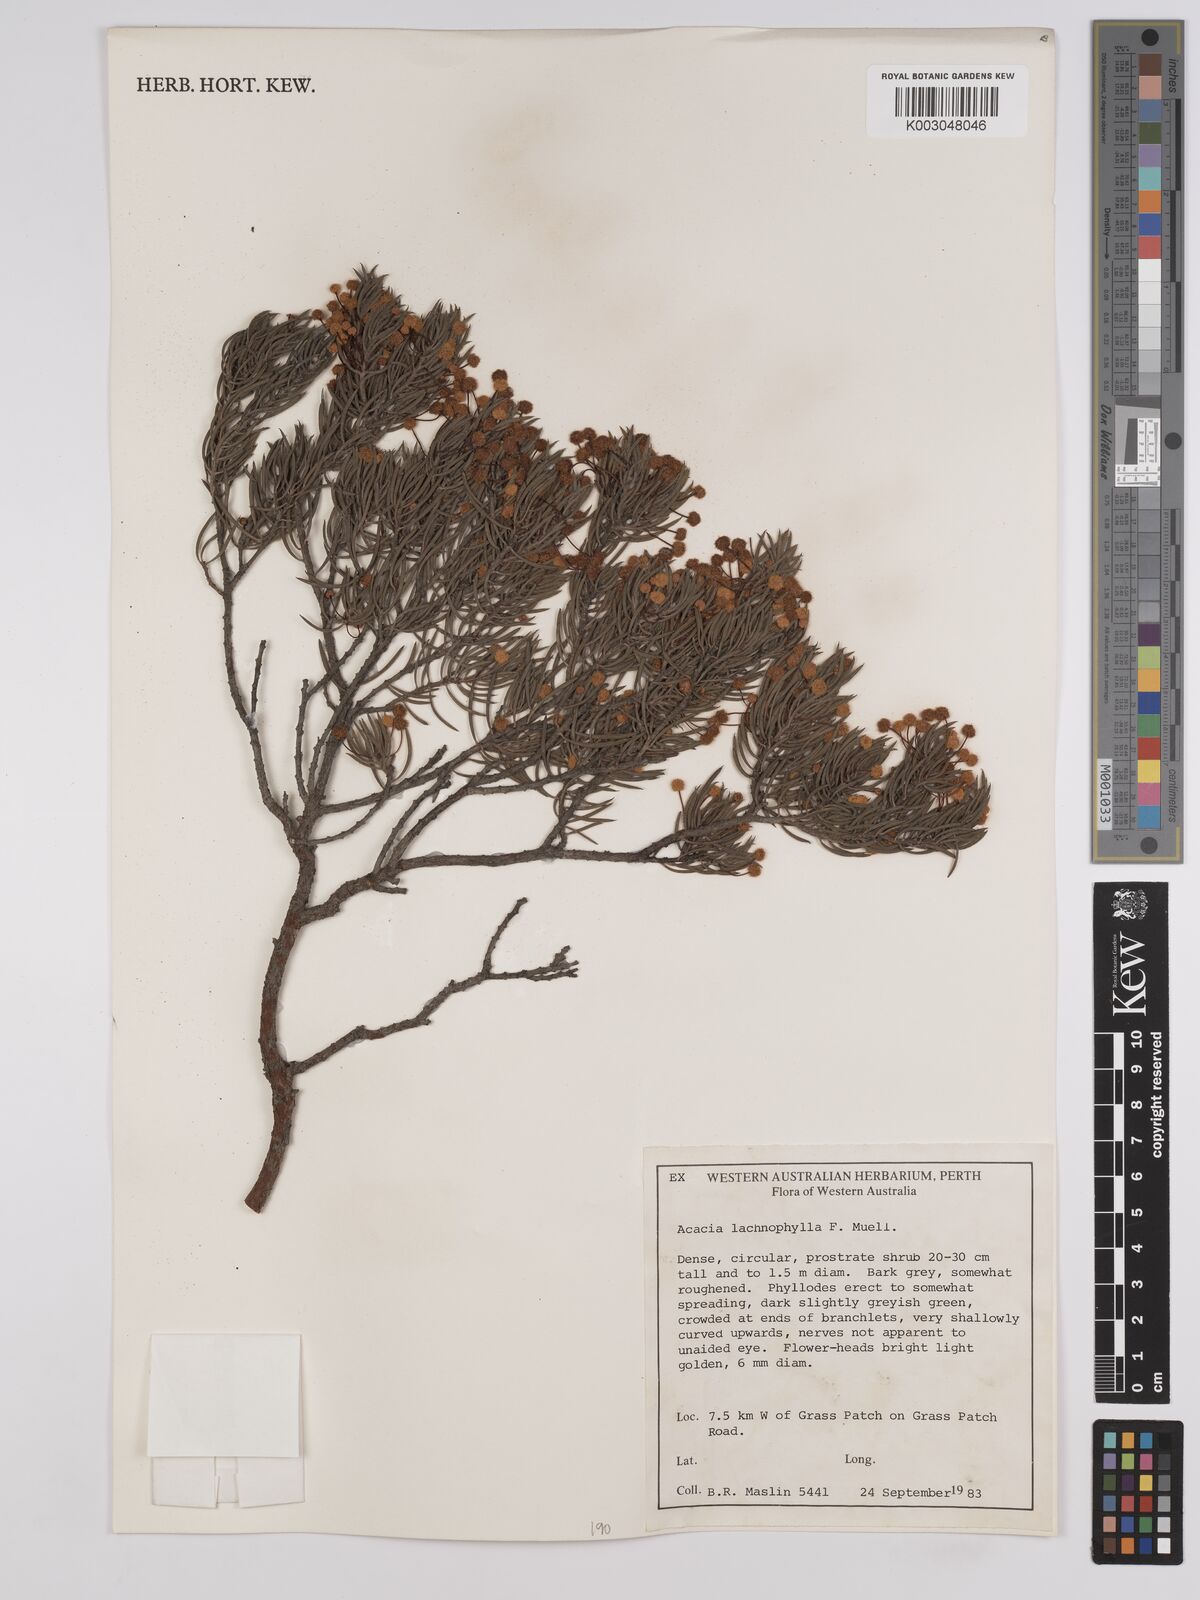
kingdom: Plantae
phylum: Tracheophyta
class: Magnoliopsida
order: Fabales
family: Fabaceae
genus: Acacia
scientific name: Acacia lachnophylla
